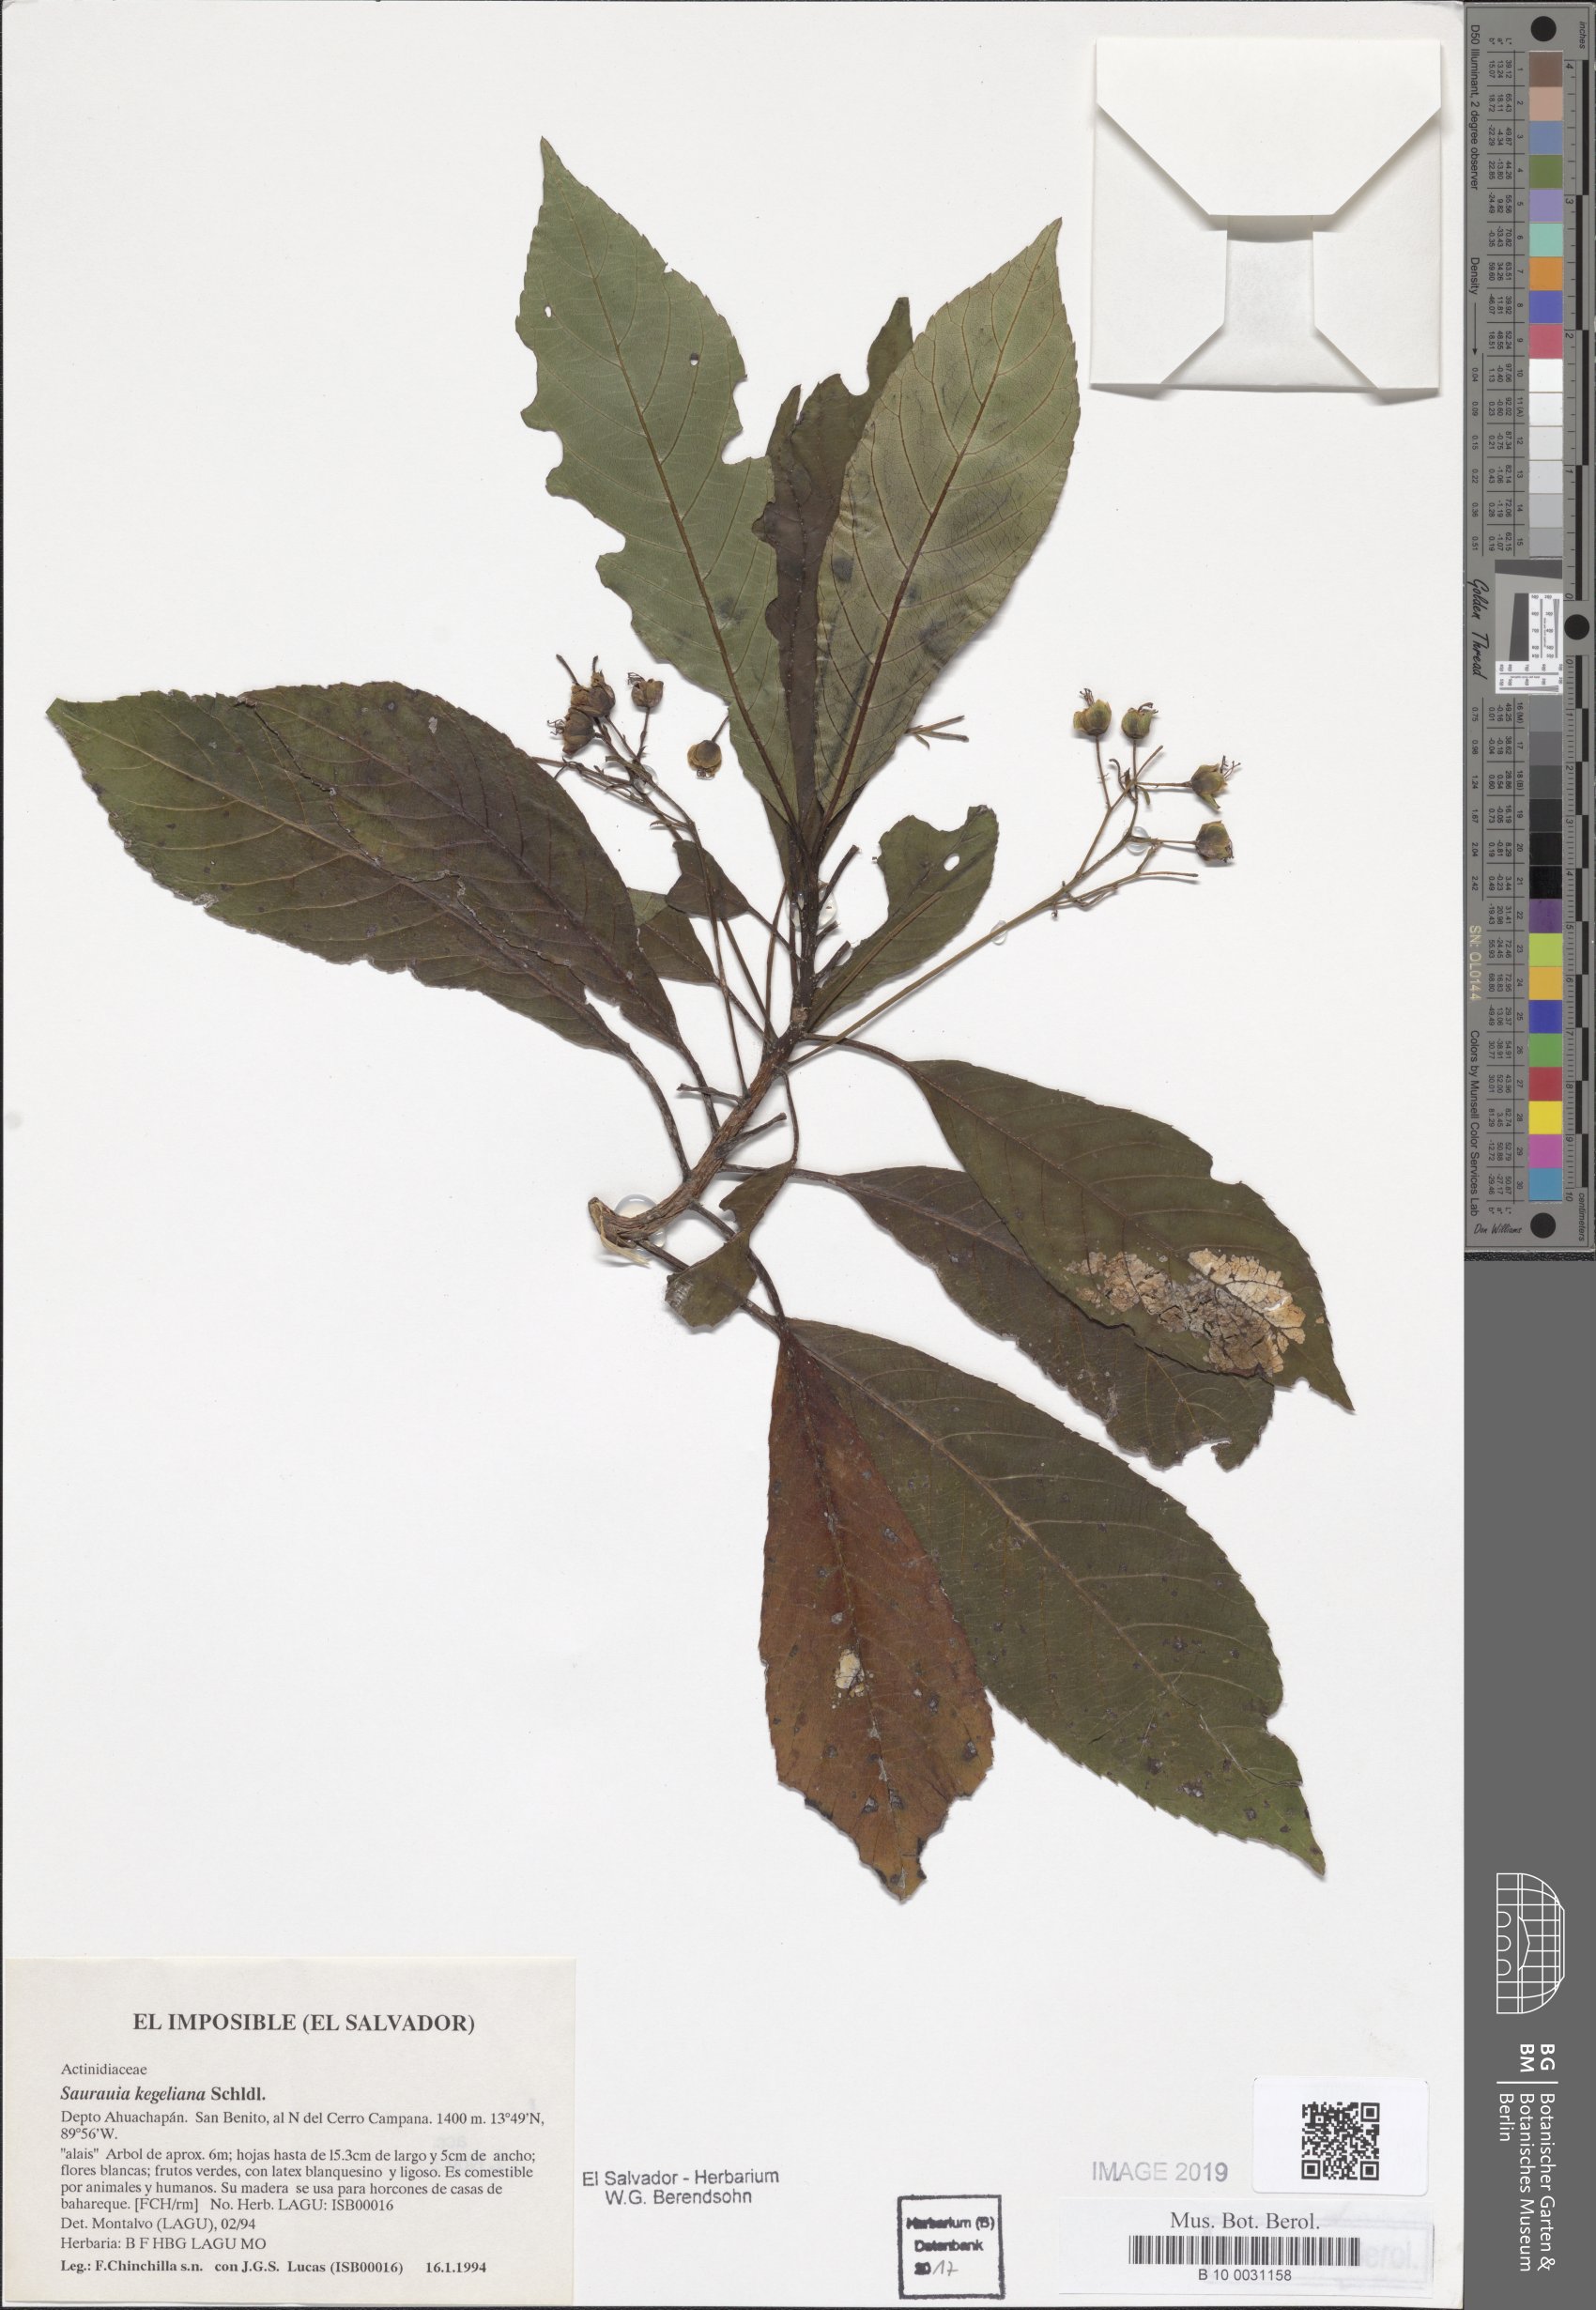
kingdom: Plantae
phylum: Tracheophyta
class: Magnoliopsida
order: Ericales
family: Actinidiaceae
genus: Saurauia
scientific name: Saurauia kegeliana
